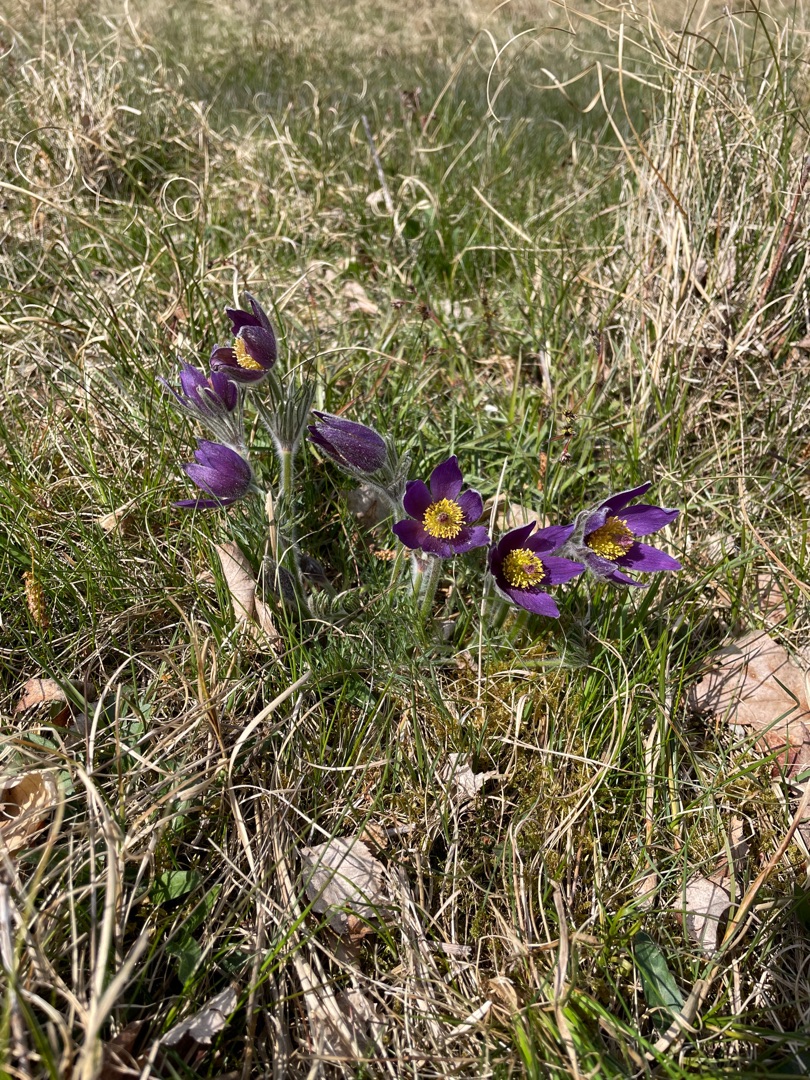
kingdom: Plantae
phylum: Tracheophyta
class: Magnoliopsida
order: Ranunculales
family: Ranunculaceae
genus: Pulsatilla
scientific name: Pulsatilla vulgaris
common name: Opret kobjælde
